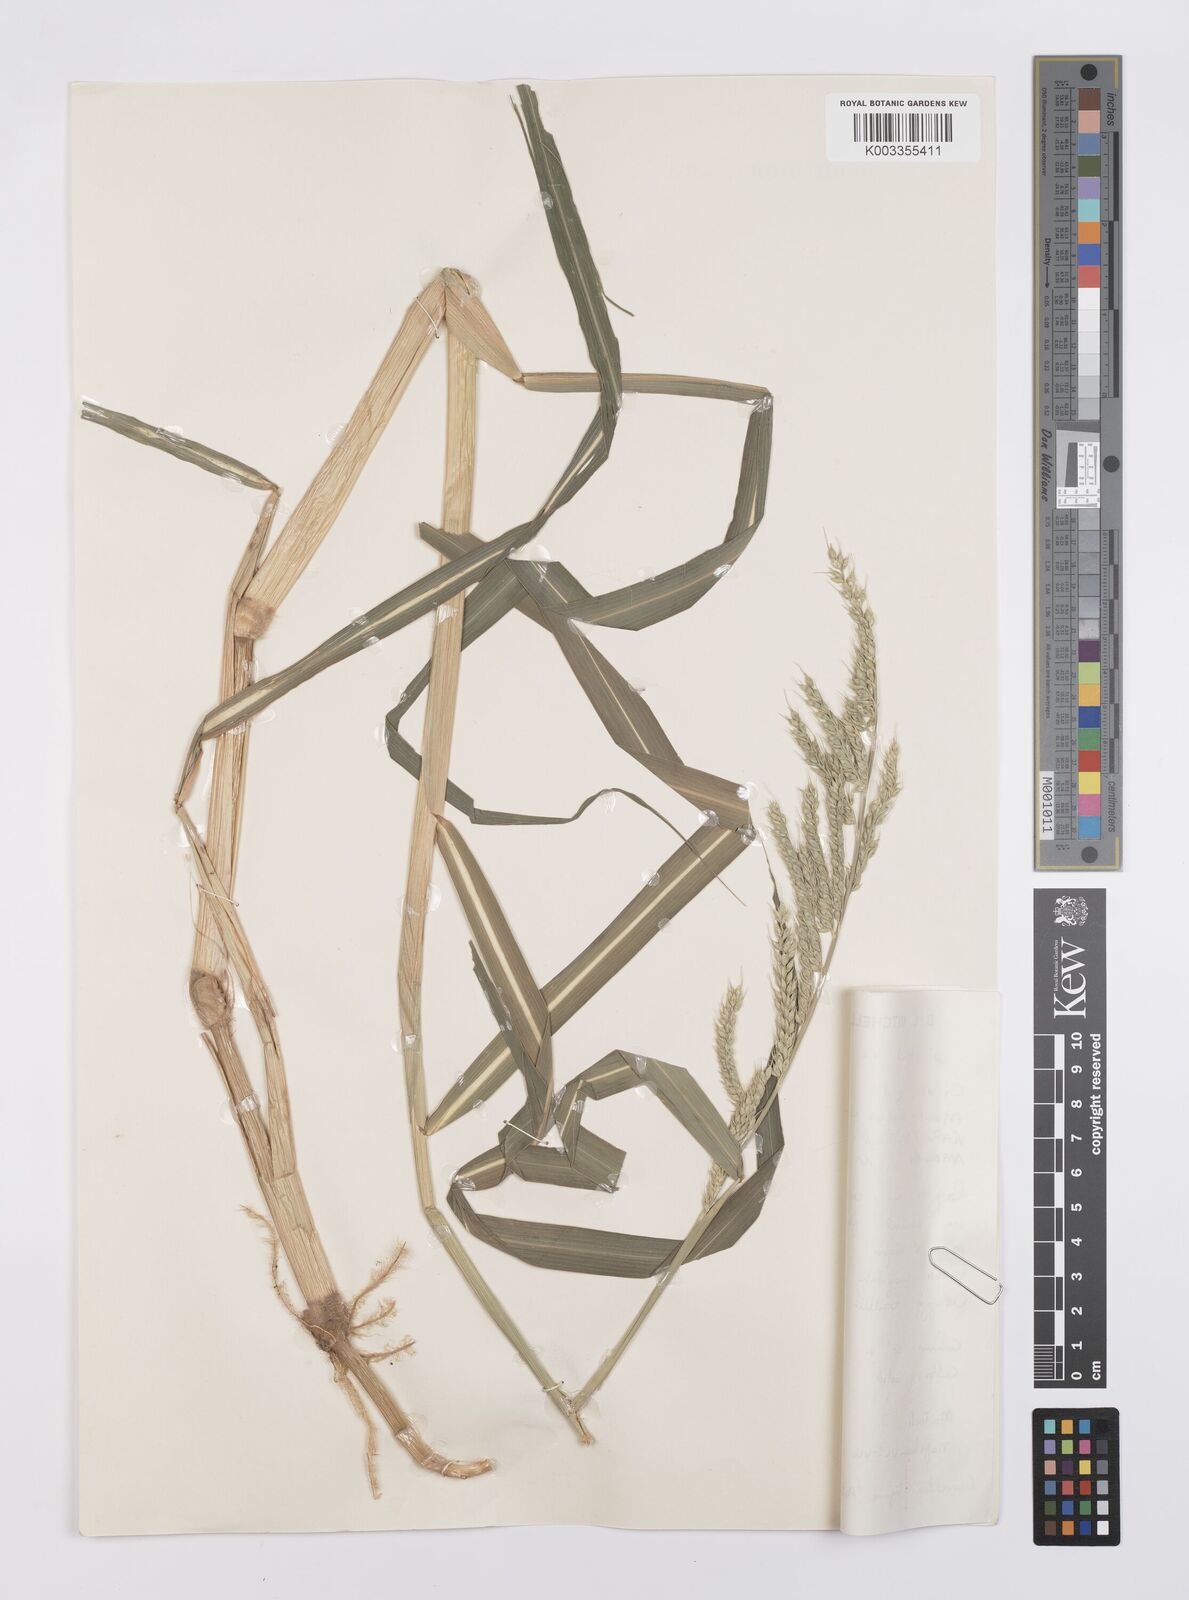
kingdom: Plantae
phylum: Tracheophyta
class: Liliopsida
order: Poales
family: Poaceae
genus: Echinochloa
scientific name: Echinochloa stagnina
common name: Burgu grass
